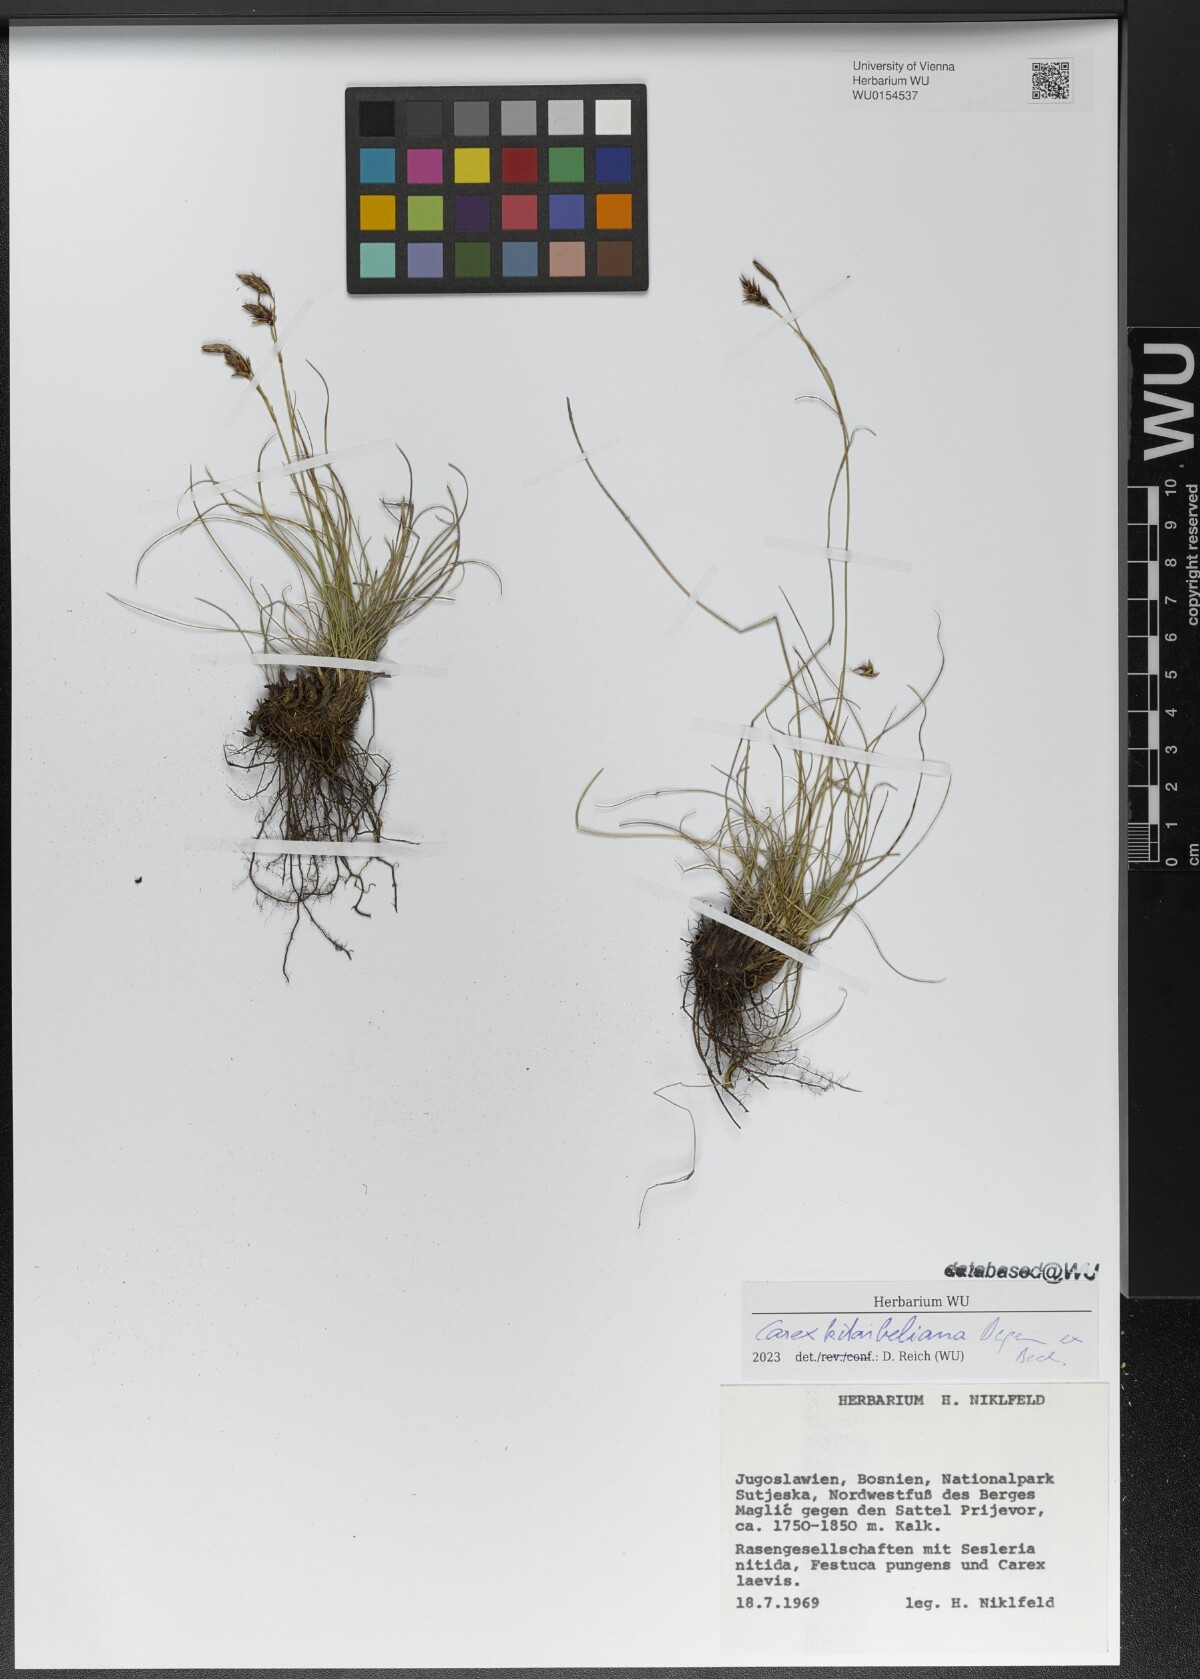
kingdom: Plantae
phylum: Tracheophyta
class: Liliopsida
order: Poales
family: Cyperaceae
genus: Carex
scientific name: Carex kitaibeliana
